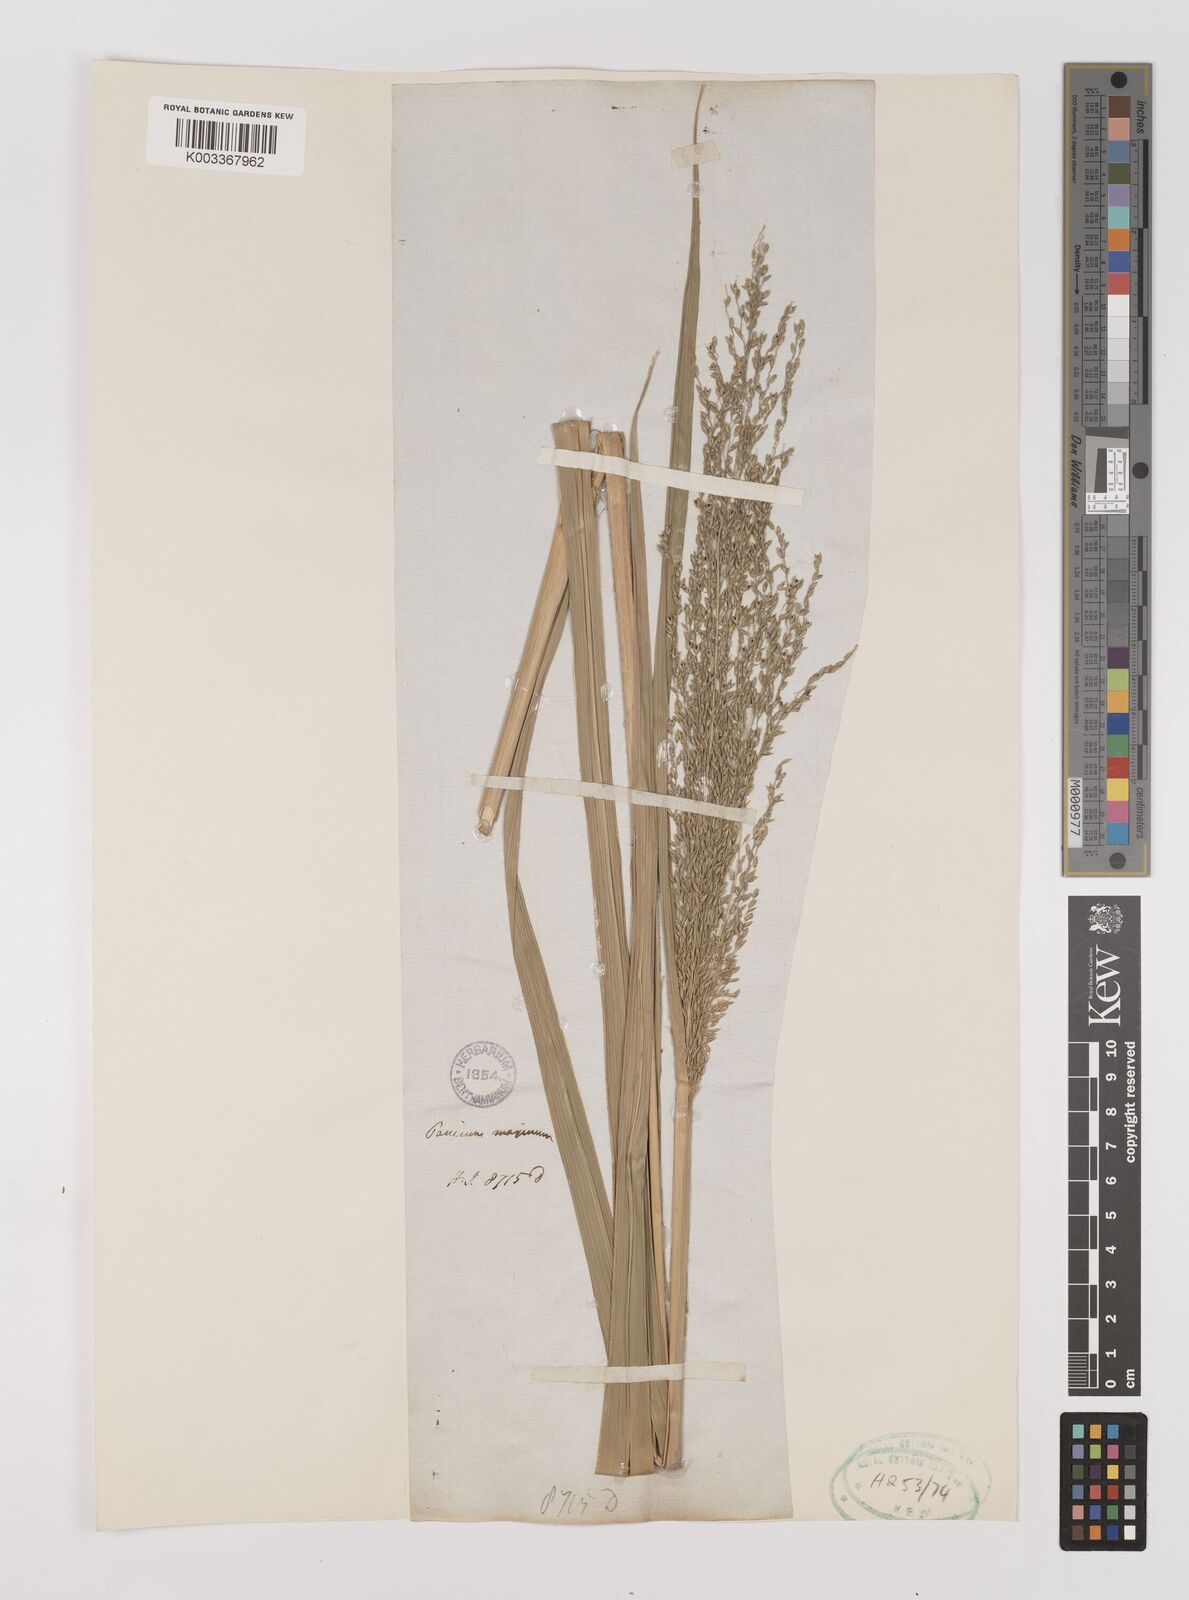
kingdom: Plantae
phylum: Tracheophyta
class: Liliopsida
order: Poales
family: Poaceae
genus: Megathyrsus
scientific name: Megathyrsus maximus
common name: Guineagrass
